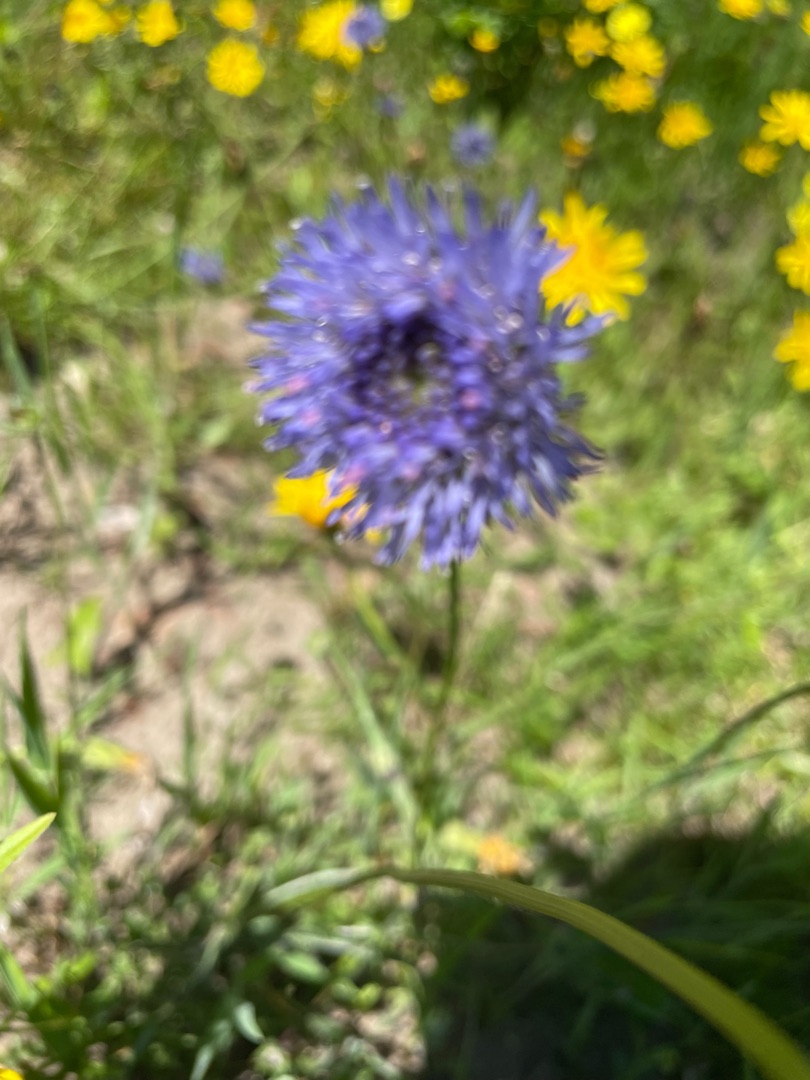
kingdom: Plantae
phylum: Tracheophyta
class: Magnoliopsida
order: Asterales
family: Campanulaceae
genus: Jasione
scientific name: Jasione montana
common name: Blåmunke
